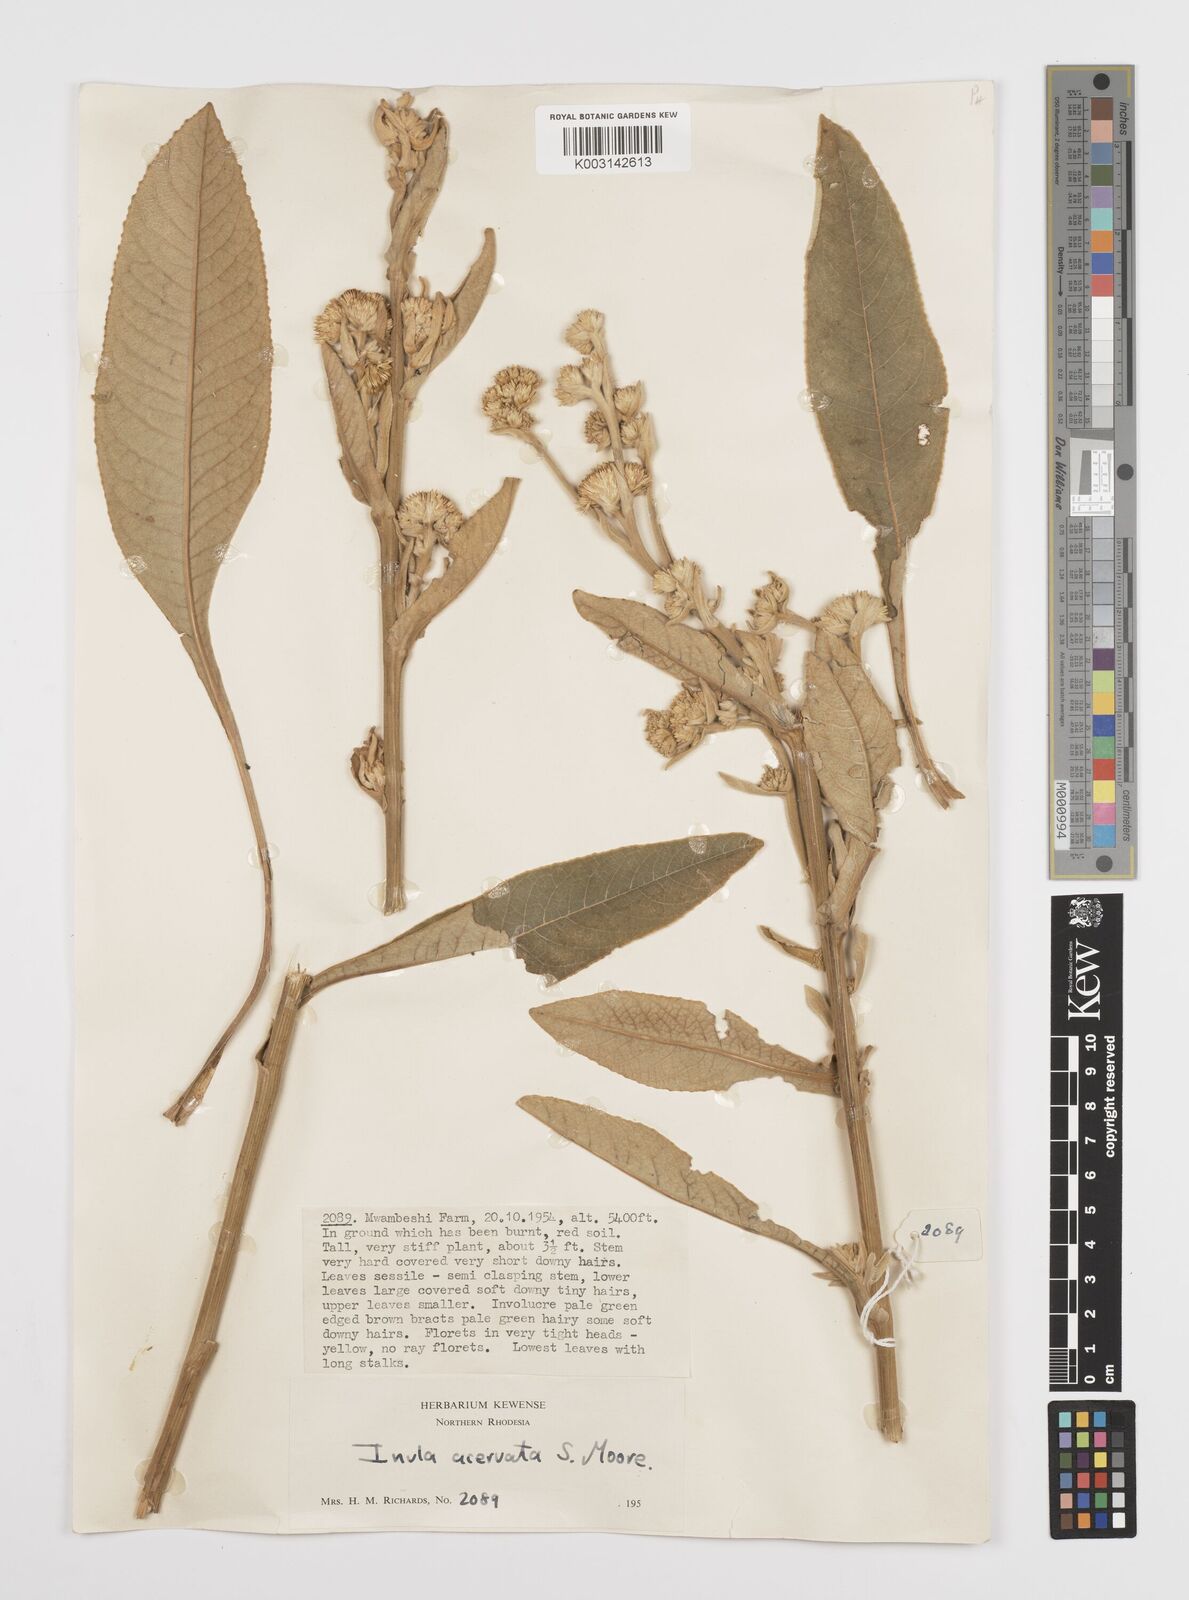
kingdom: Plantae
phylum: Tracheophyta
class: Magnoliopsida
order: Asterales
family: Asteraceae
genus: Inula
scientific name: Inula glomerata
